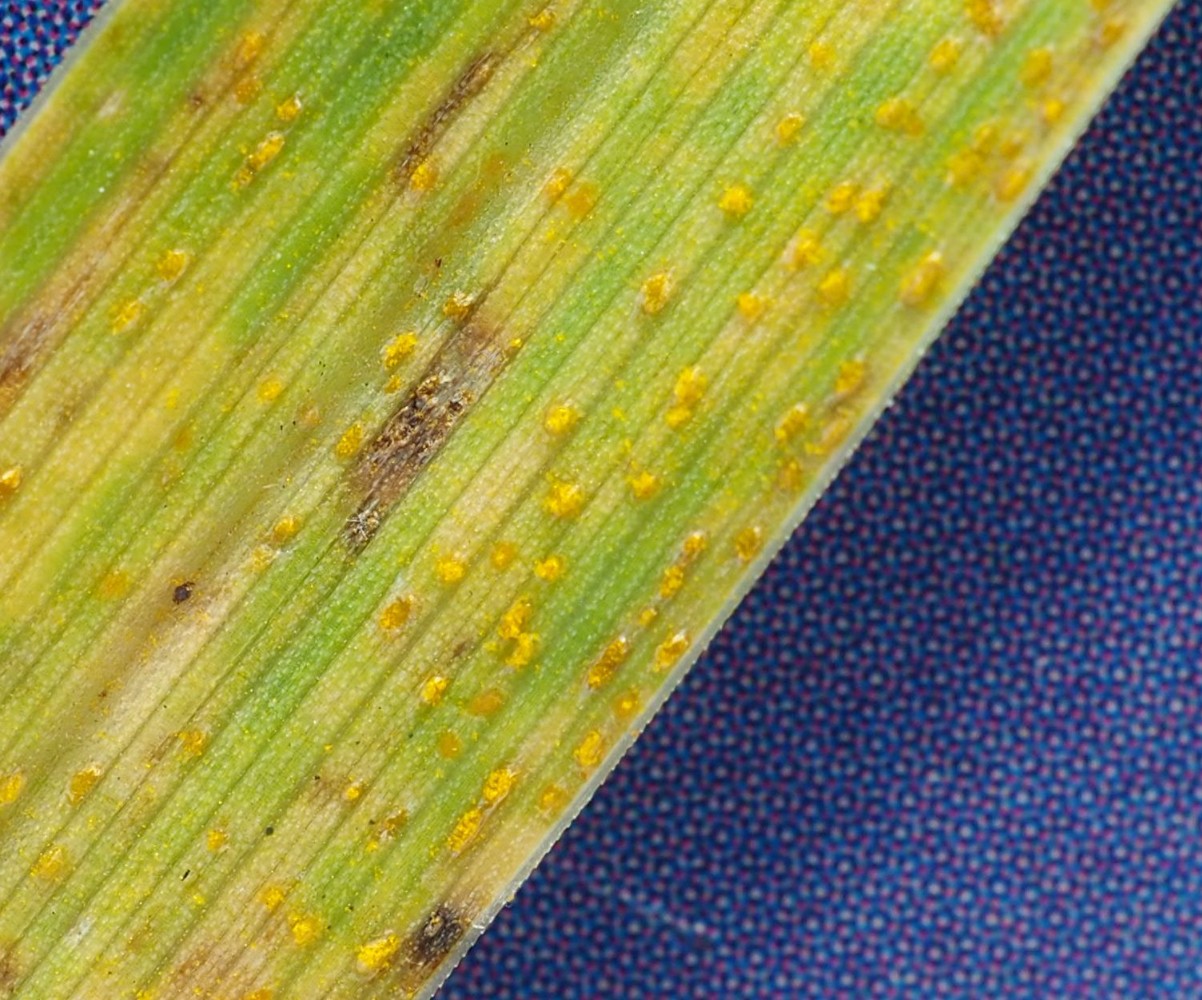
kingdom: Fungi
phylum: Basidiomycota
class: Pucciniomycetes
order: Pucciniales
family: Pucciniaceae
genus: Puccinia
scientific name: Puccinia coronata
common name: Crown rust
